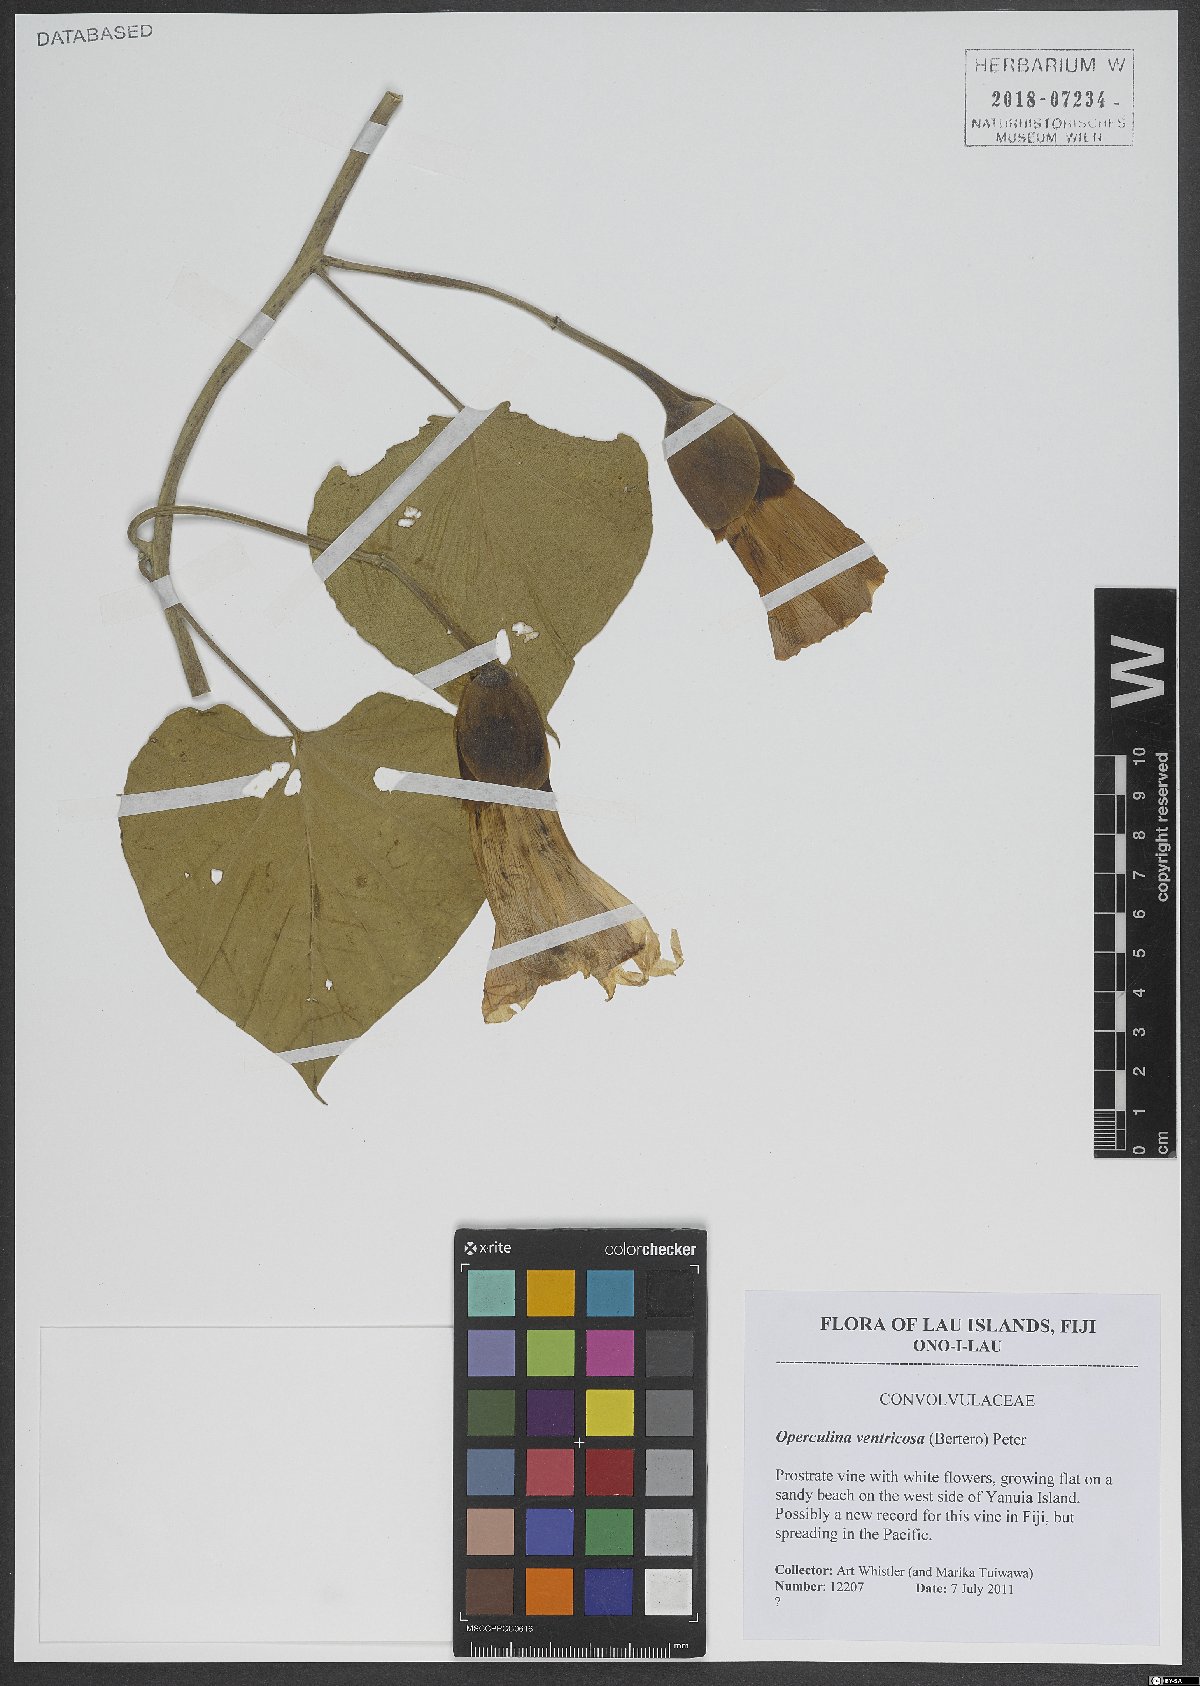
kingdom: Plantae
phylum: Tracheophyta
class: Magnoliopsida
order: Solanales
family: Convolvulaceae
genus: Operculina
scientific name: Operculina ventricosa
